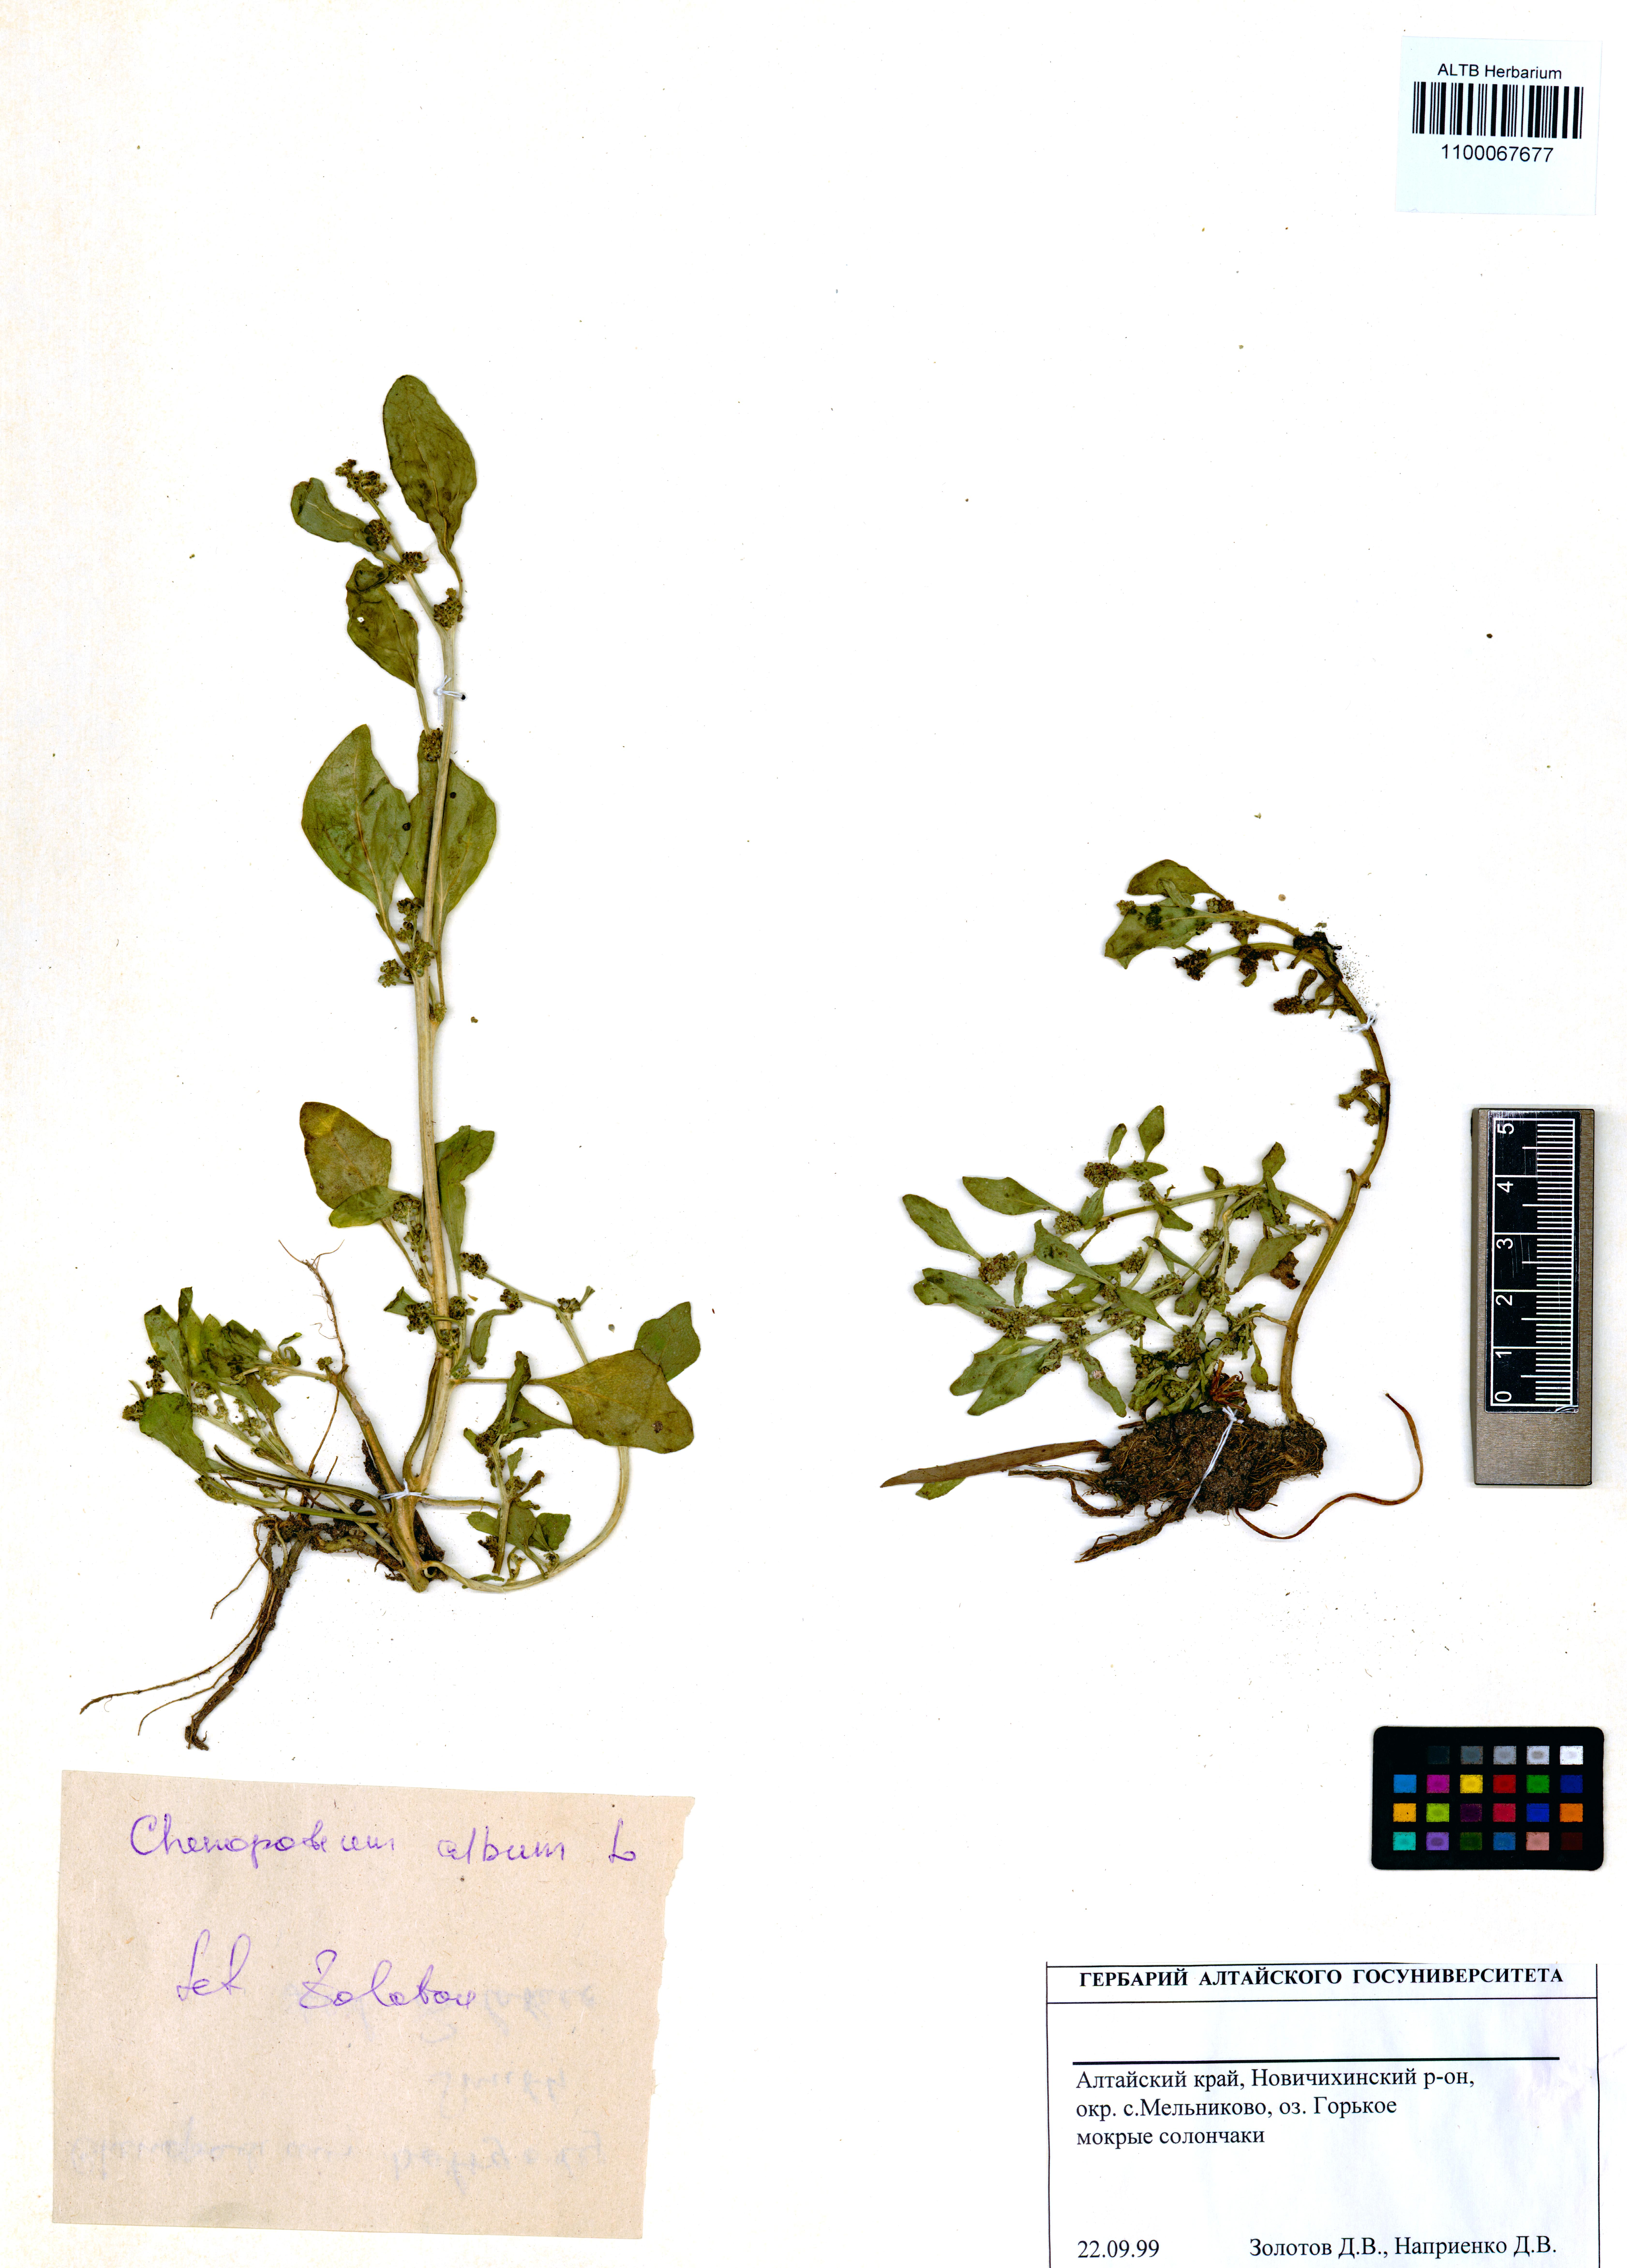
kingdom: Plantae
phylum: Tracheophyta
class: Magnoliopsida
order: Caryophyllales
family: Amaranthaceae
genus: Chenopodium
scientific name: Chenopodium album
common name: Fat-hen
